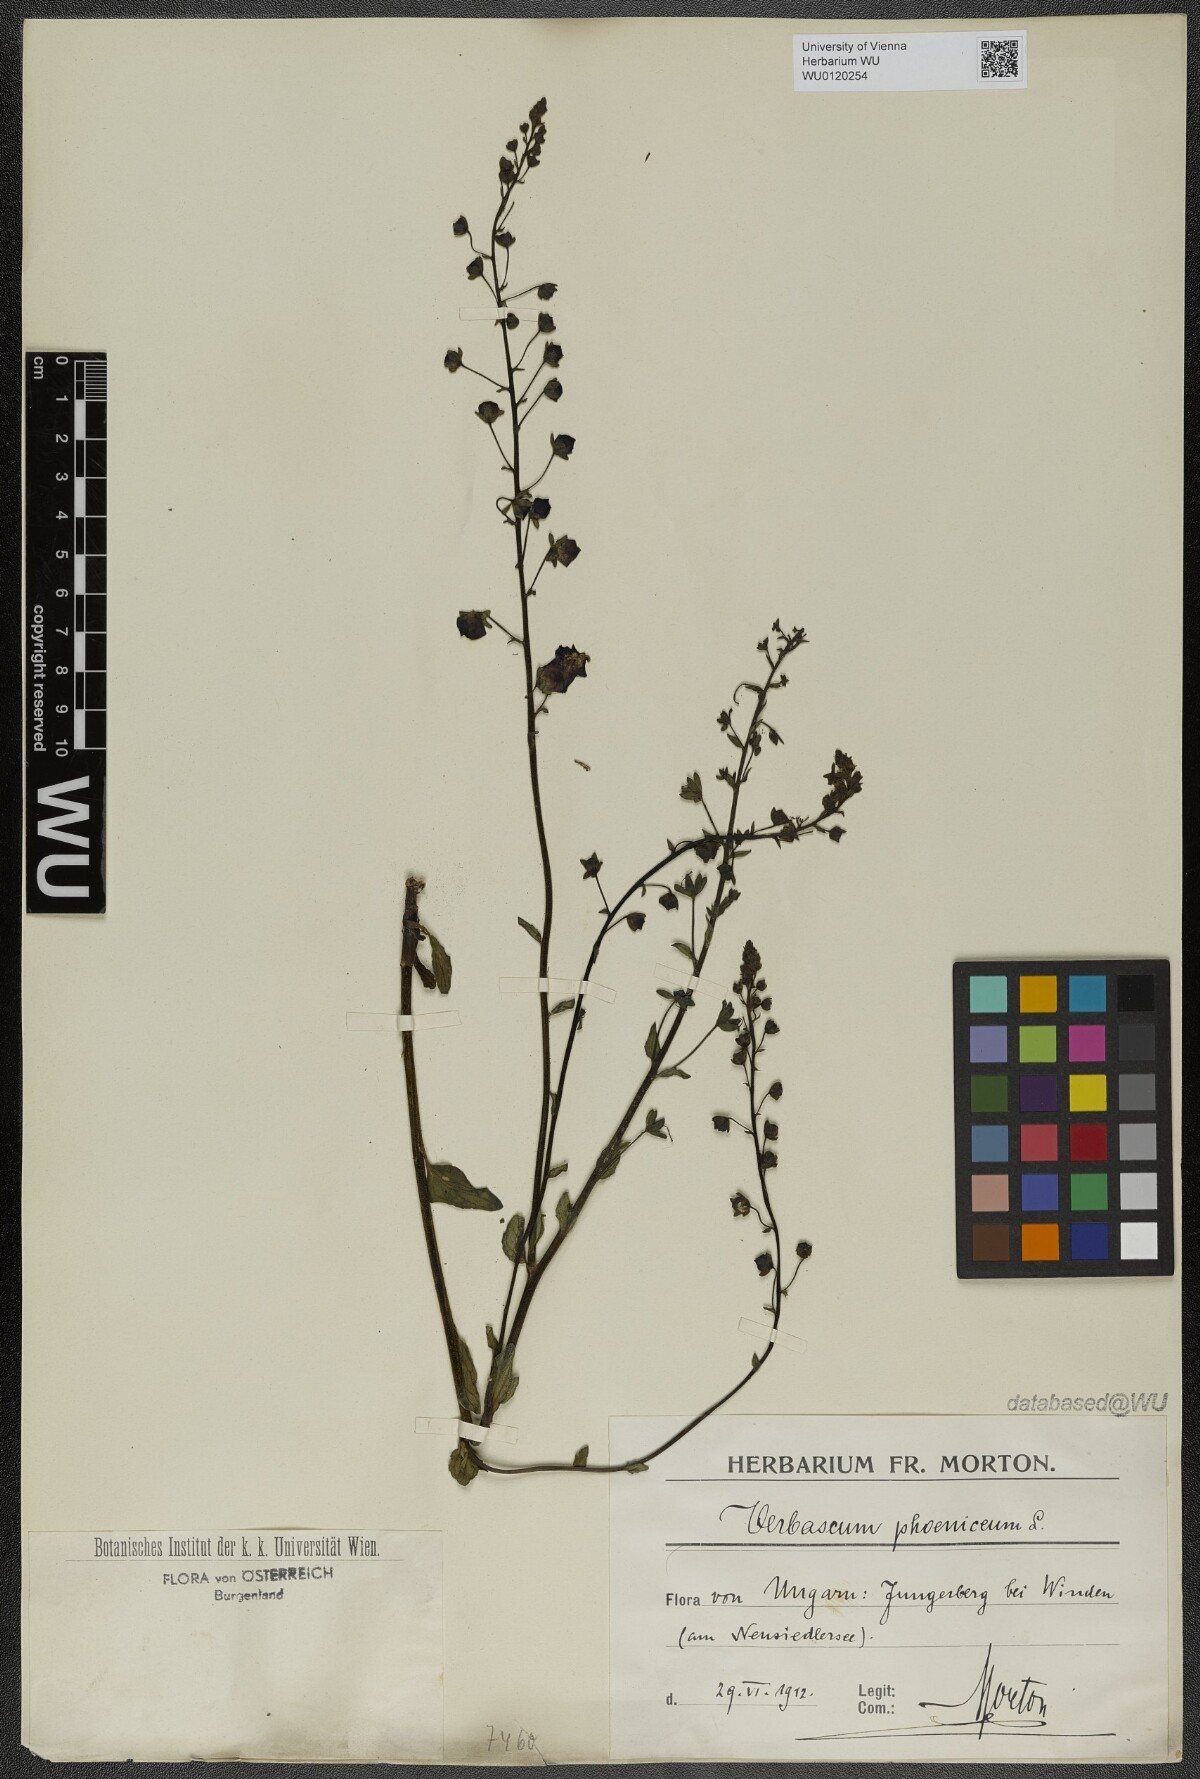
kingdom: Plantae
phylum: Tracheophyta
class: Magnoliopsida
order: Lamiales
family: Scrophulariaceae
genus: Verbascum
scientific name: Verbascum phoeniceum
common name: Purple mullein
